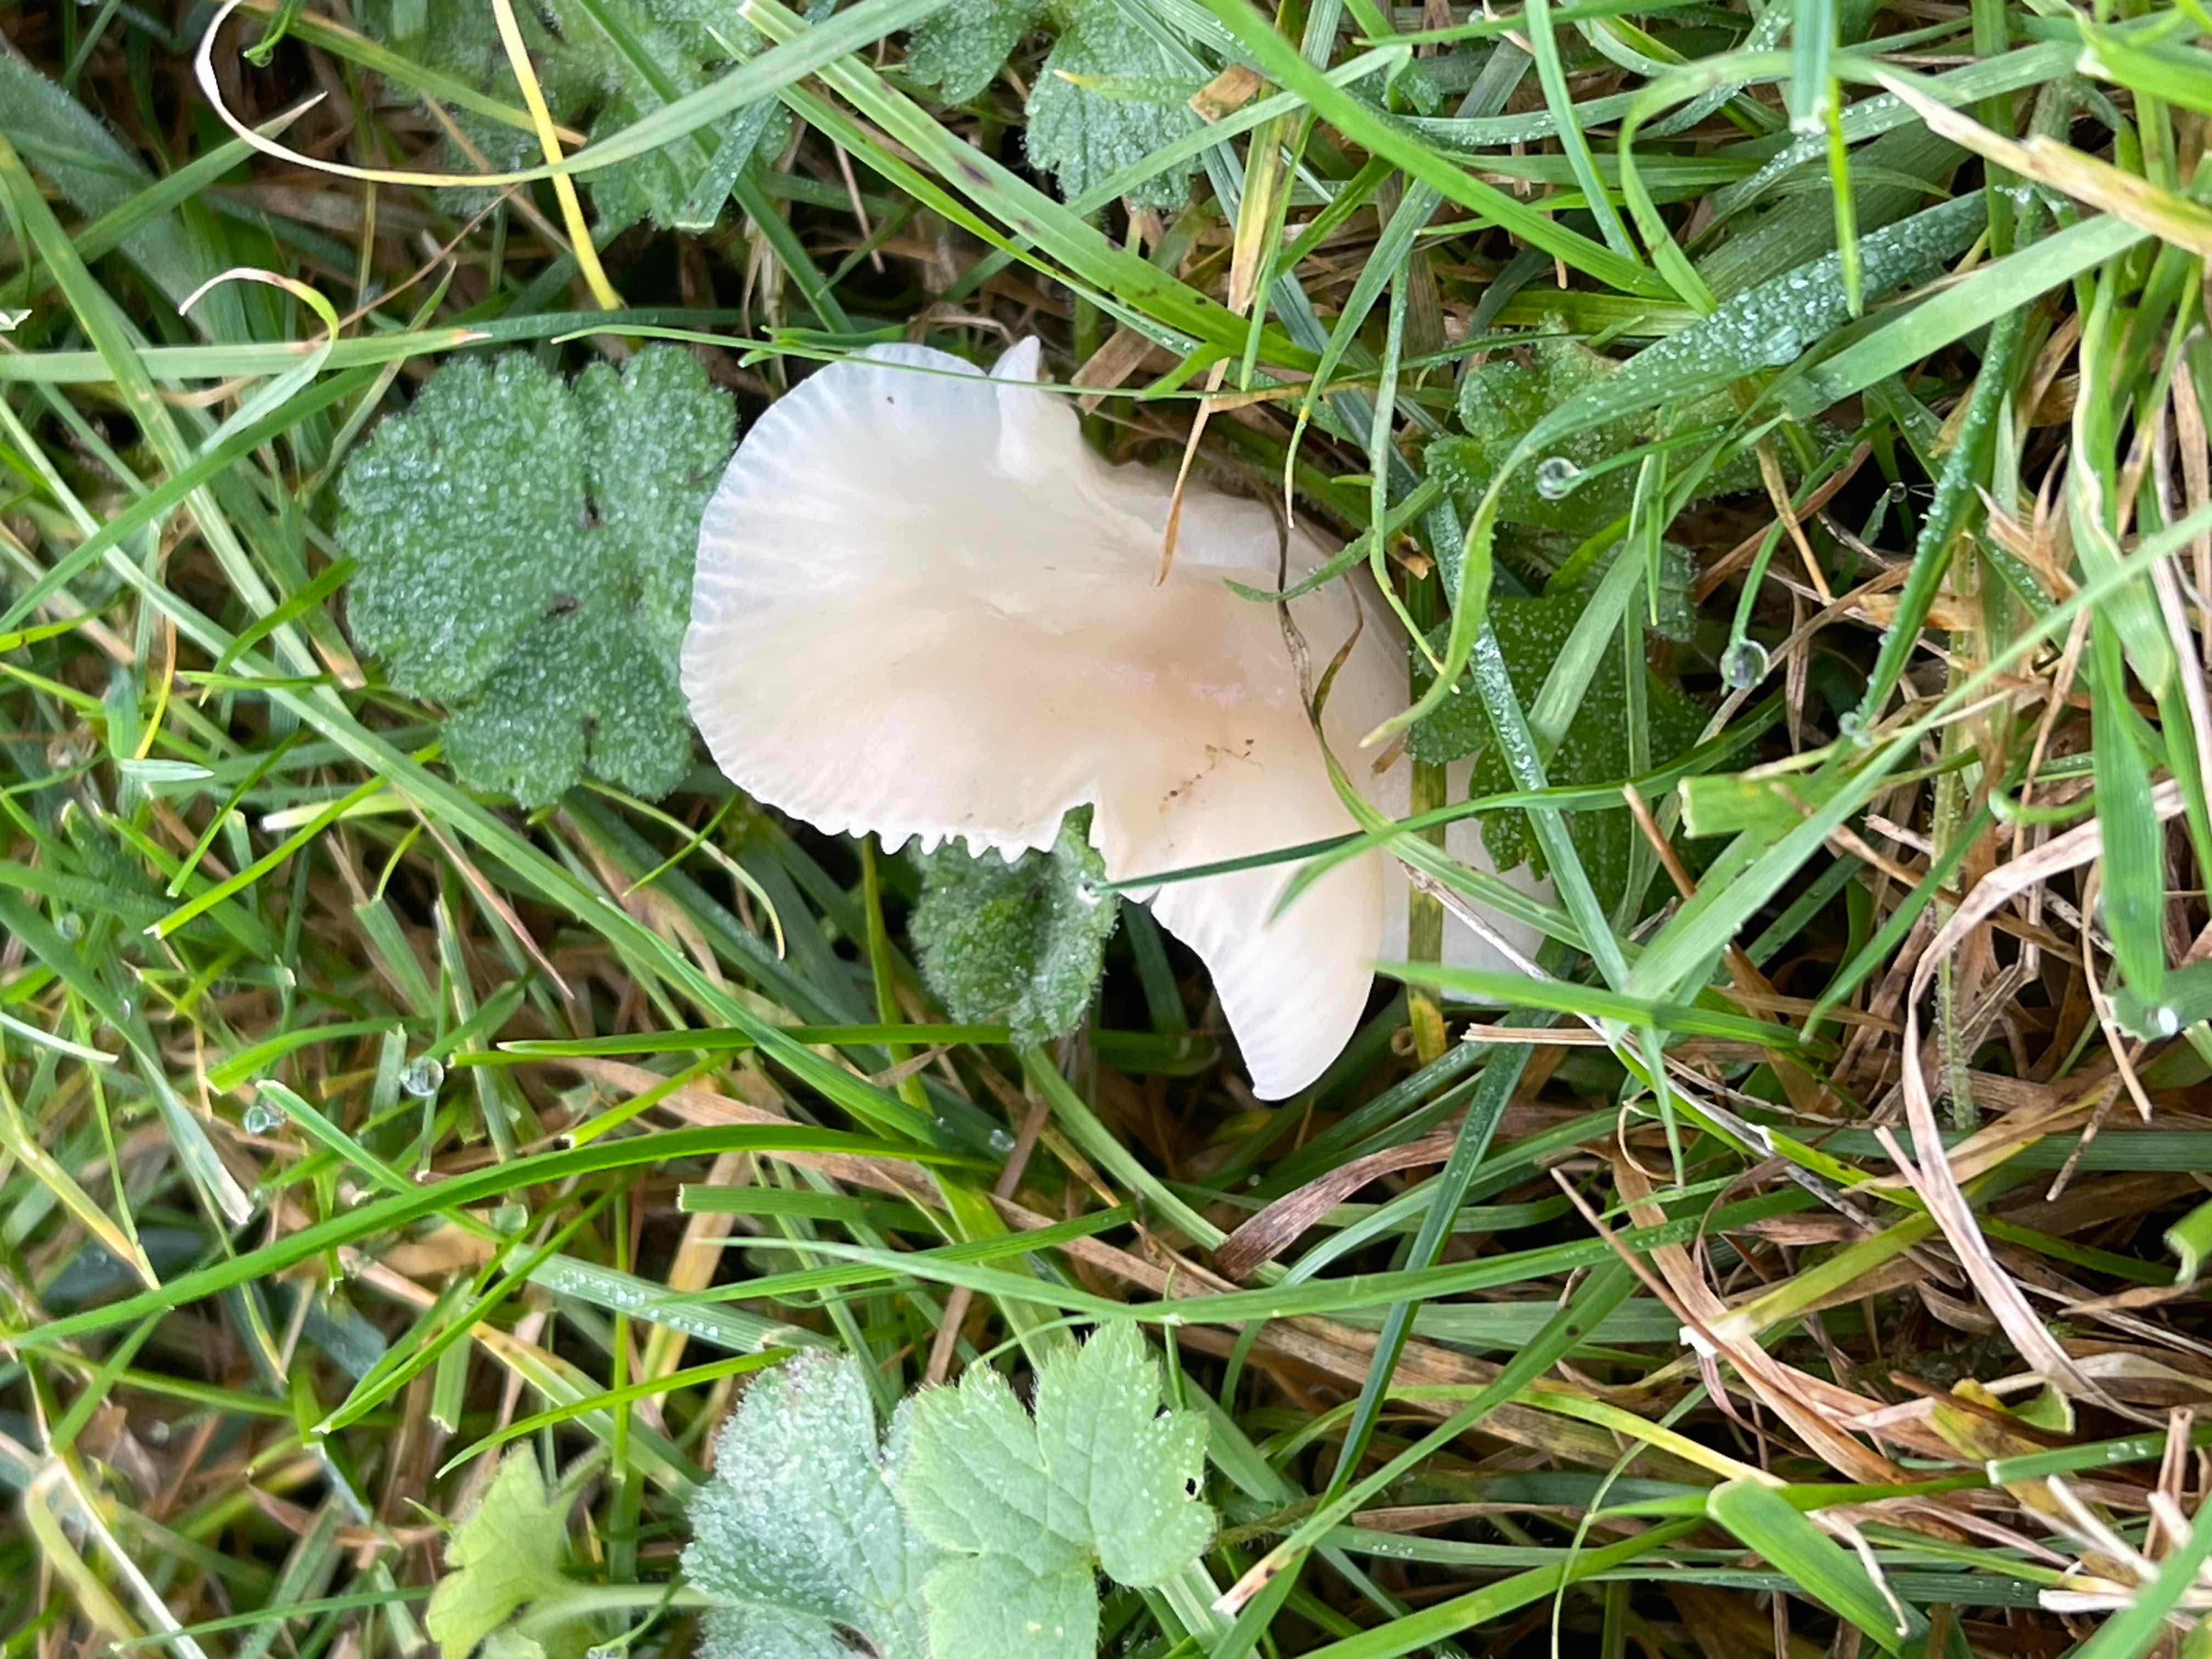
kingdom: Fungi
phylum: Basidiomycota
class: Agaricomycetes
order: Agaricales
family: Hygrophoraceae
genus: Cuphophyllus
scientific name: Cuphophyllus virgineus
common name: snehvid vokshat
